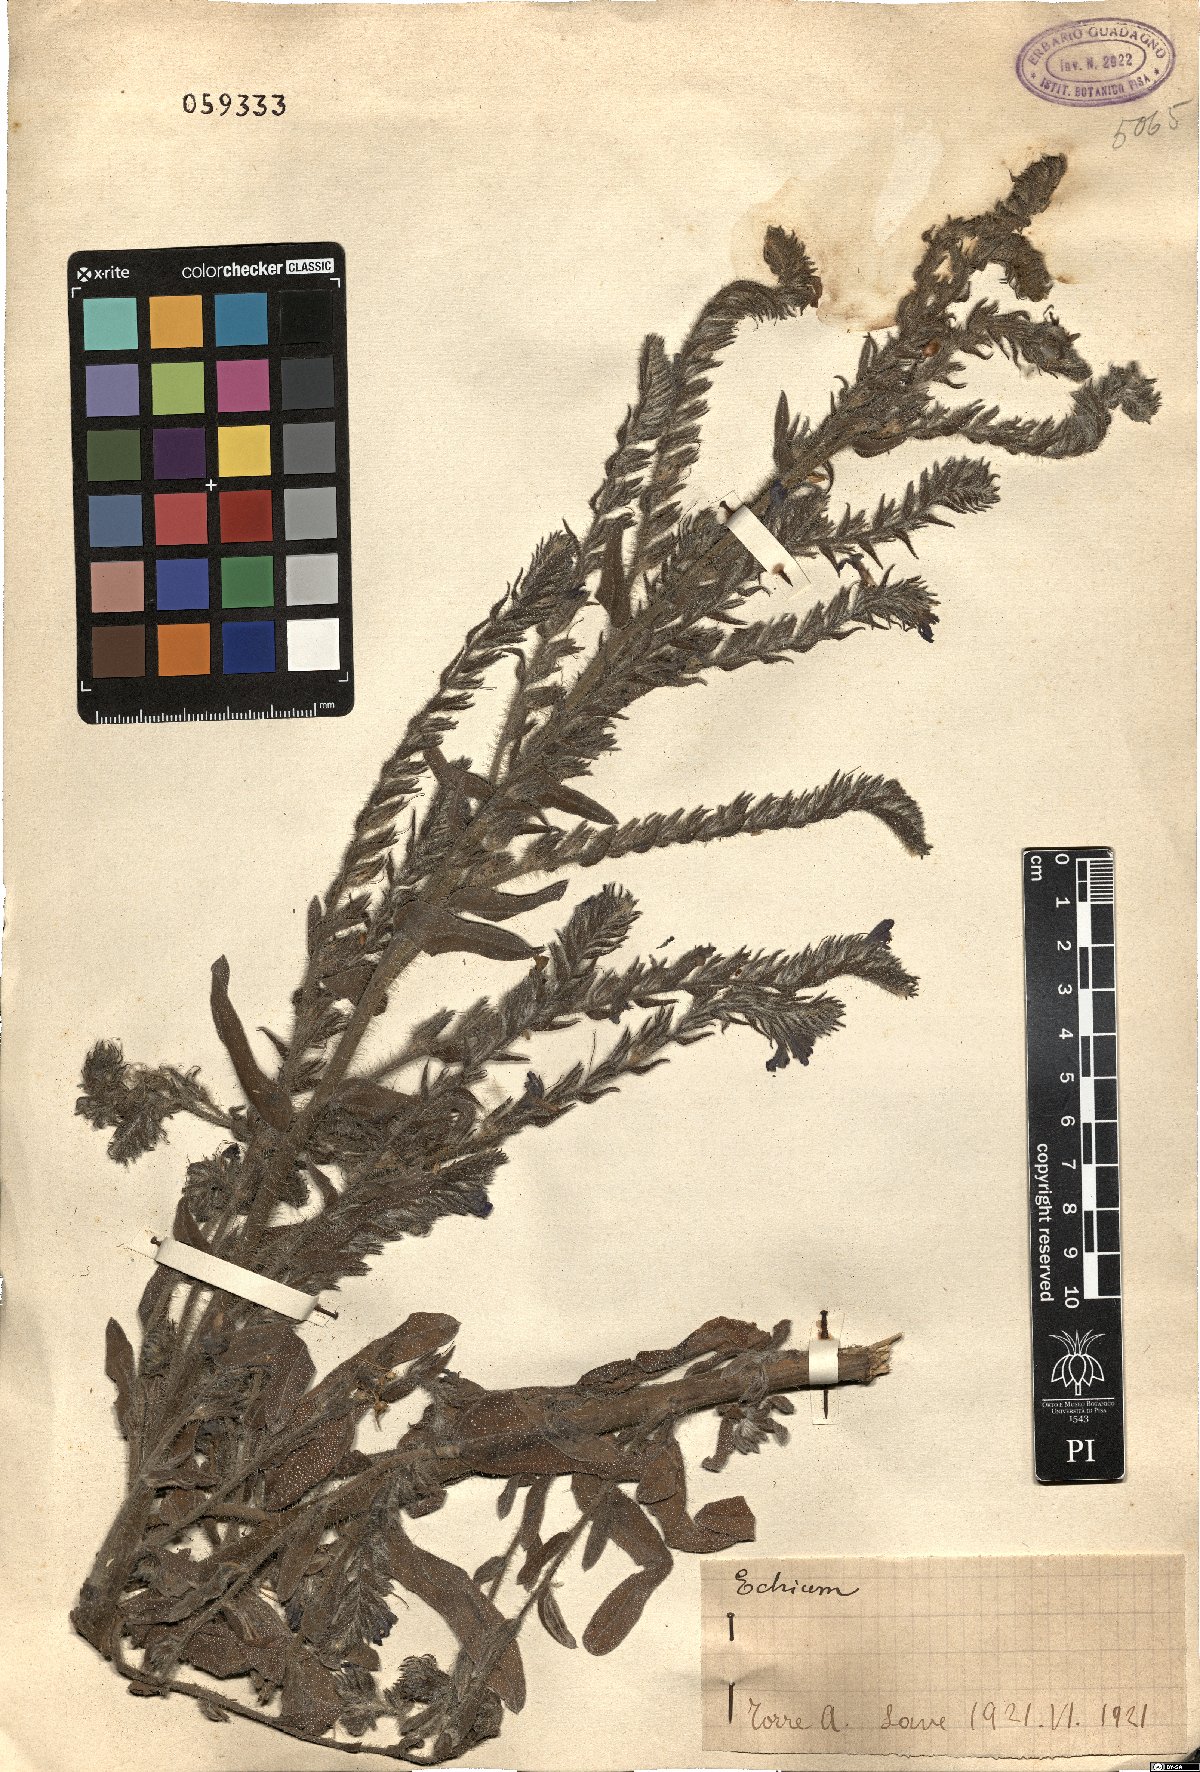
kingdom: Plantae
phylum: Tracheophyta
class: Magnoliopsida
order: Boraginales
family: Boraginaceae
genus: Echium
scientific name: Echium
